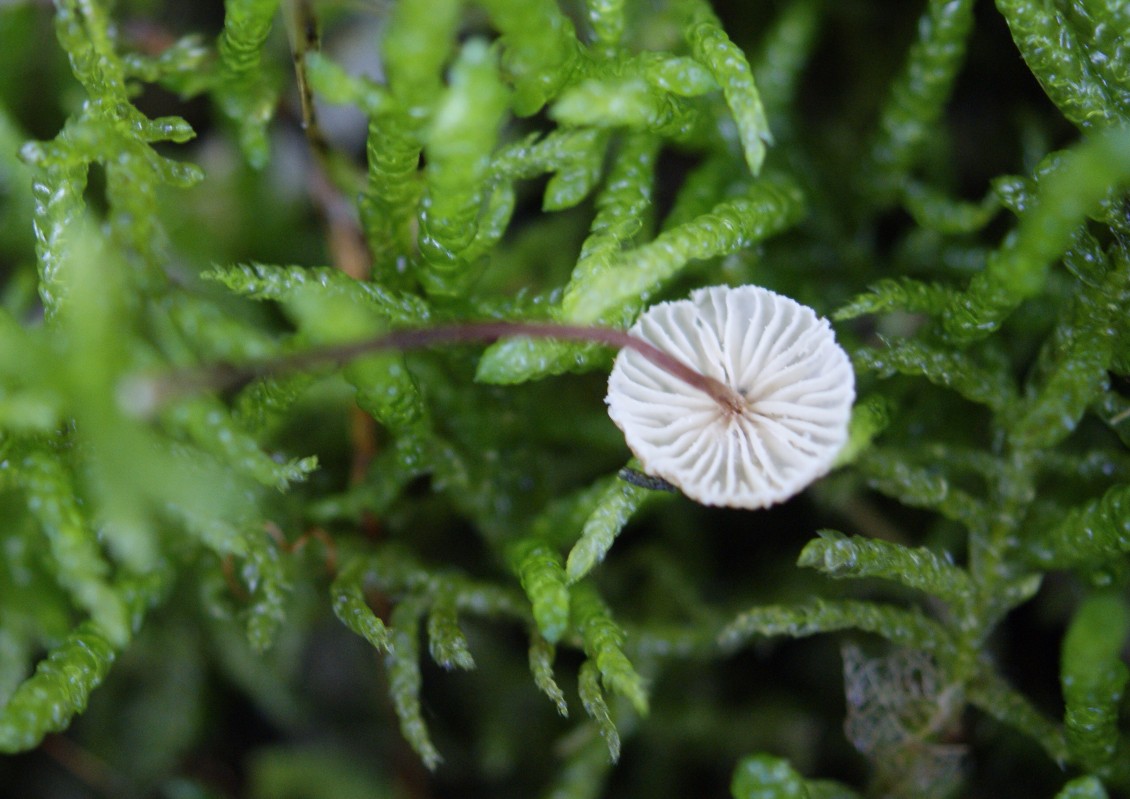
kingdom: Fungi
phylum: Basidiomycota
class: Agaricomycetes
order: Agaricales
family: Marasmiaceae
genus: Crinipellis
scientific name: Crinipellis scabella
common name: børstefod
